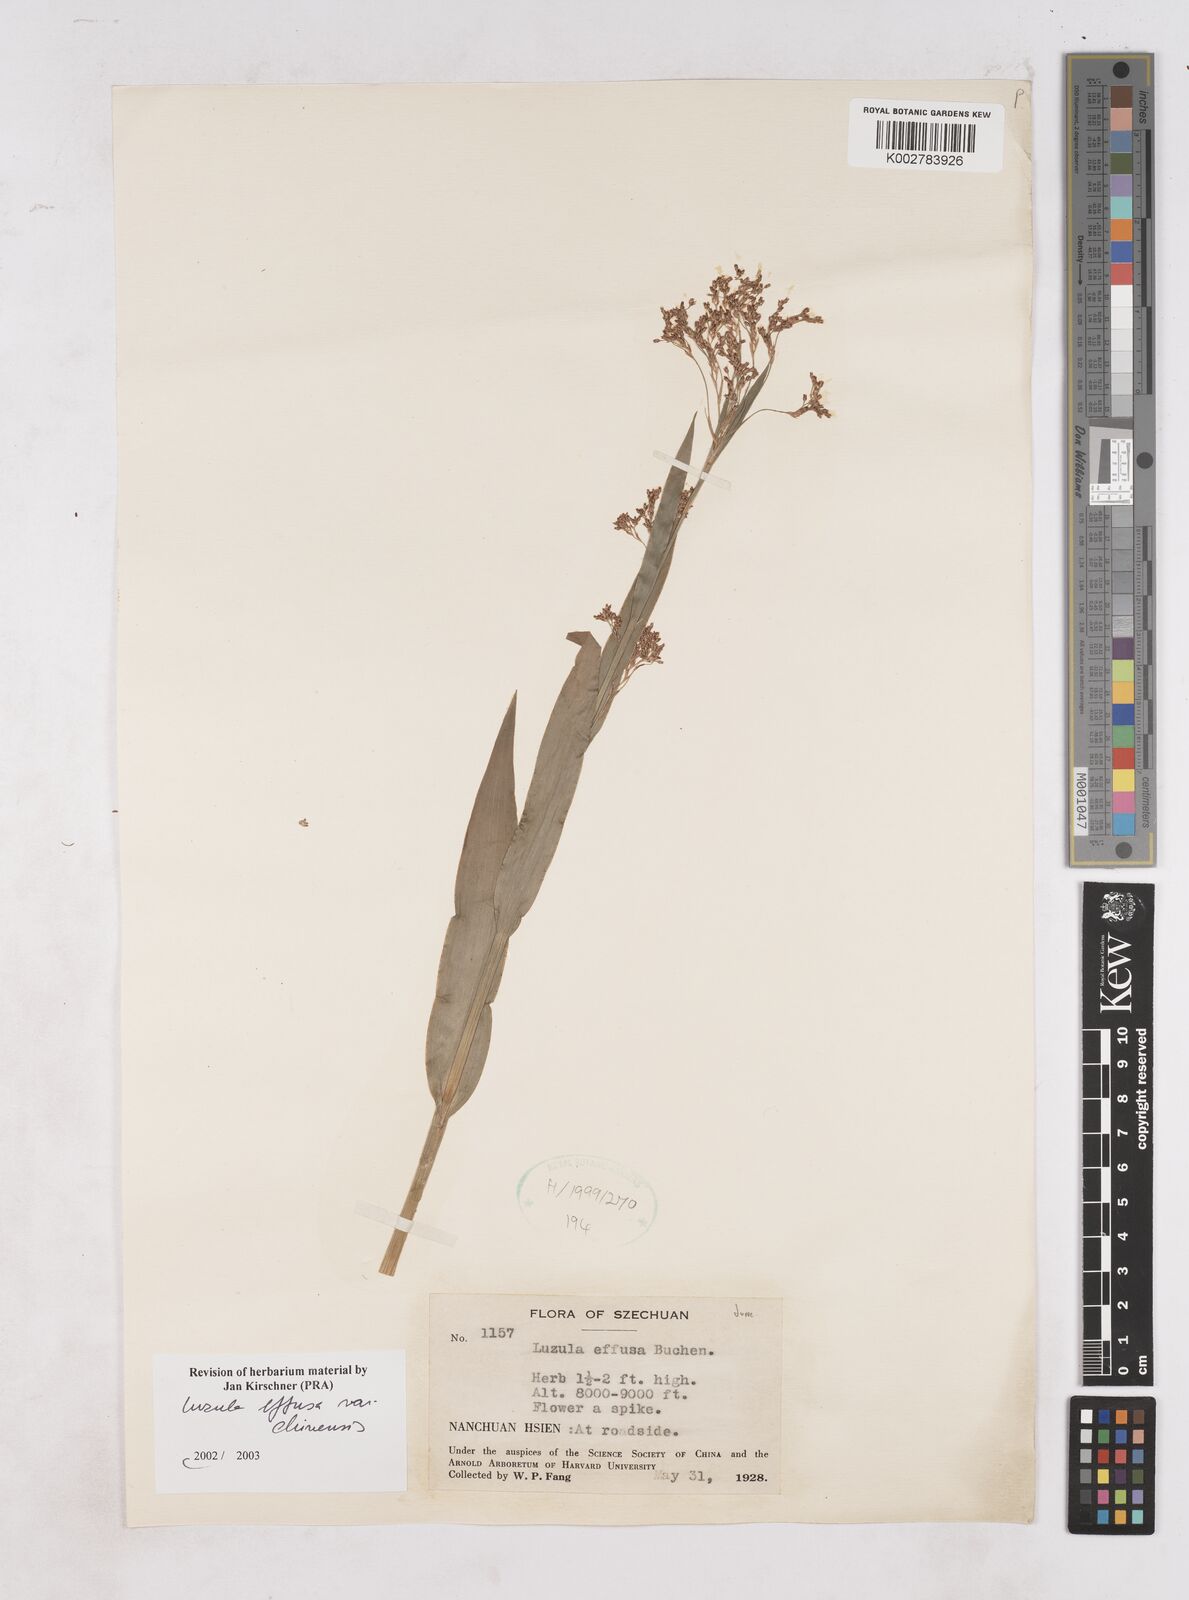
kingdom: Plantae
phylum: Tracheophyta
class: Liliopsida
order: Poales
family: Juncaceae
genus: Luzula
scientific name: Luzula effusa
